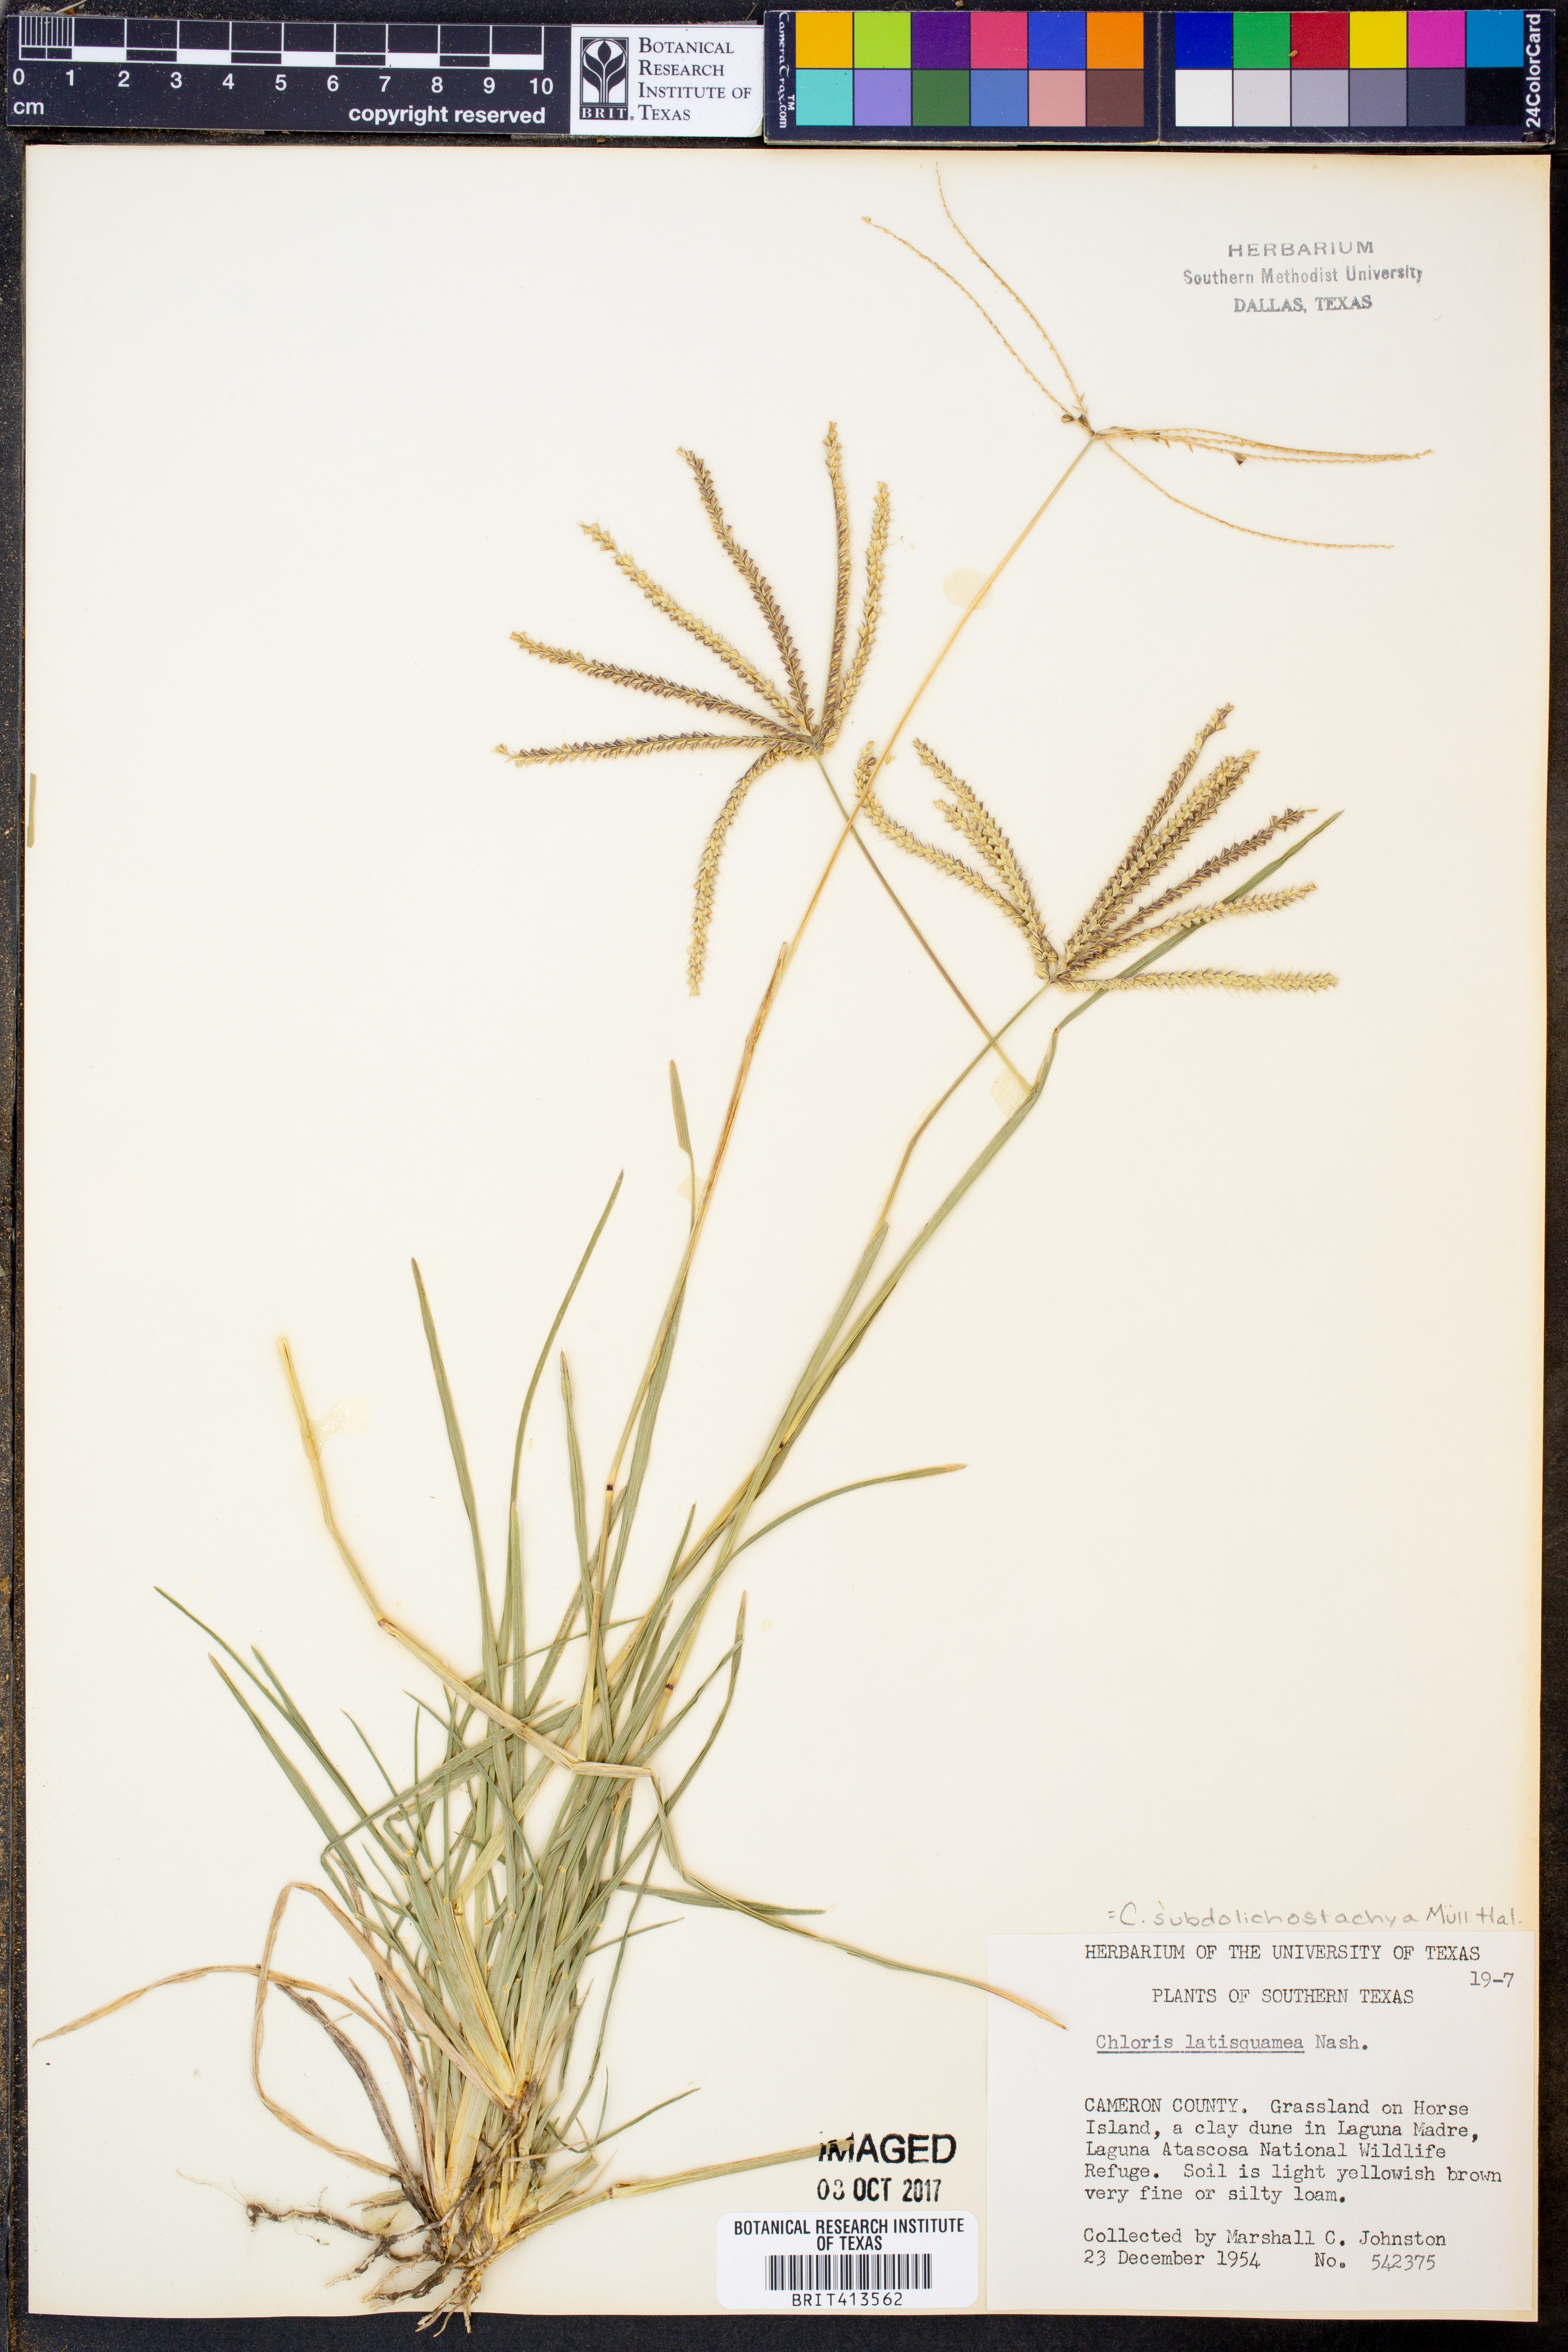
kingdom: Plantae
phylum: Tracheophyta
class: Liliopsida
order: Poales
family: Poaceae
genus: Chloris
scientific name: Chloris subdolichostachya
